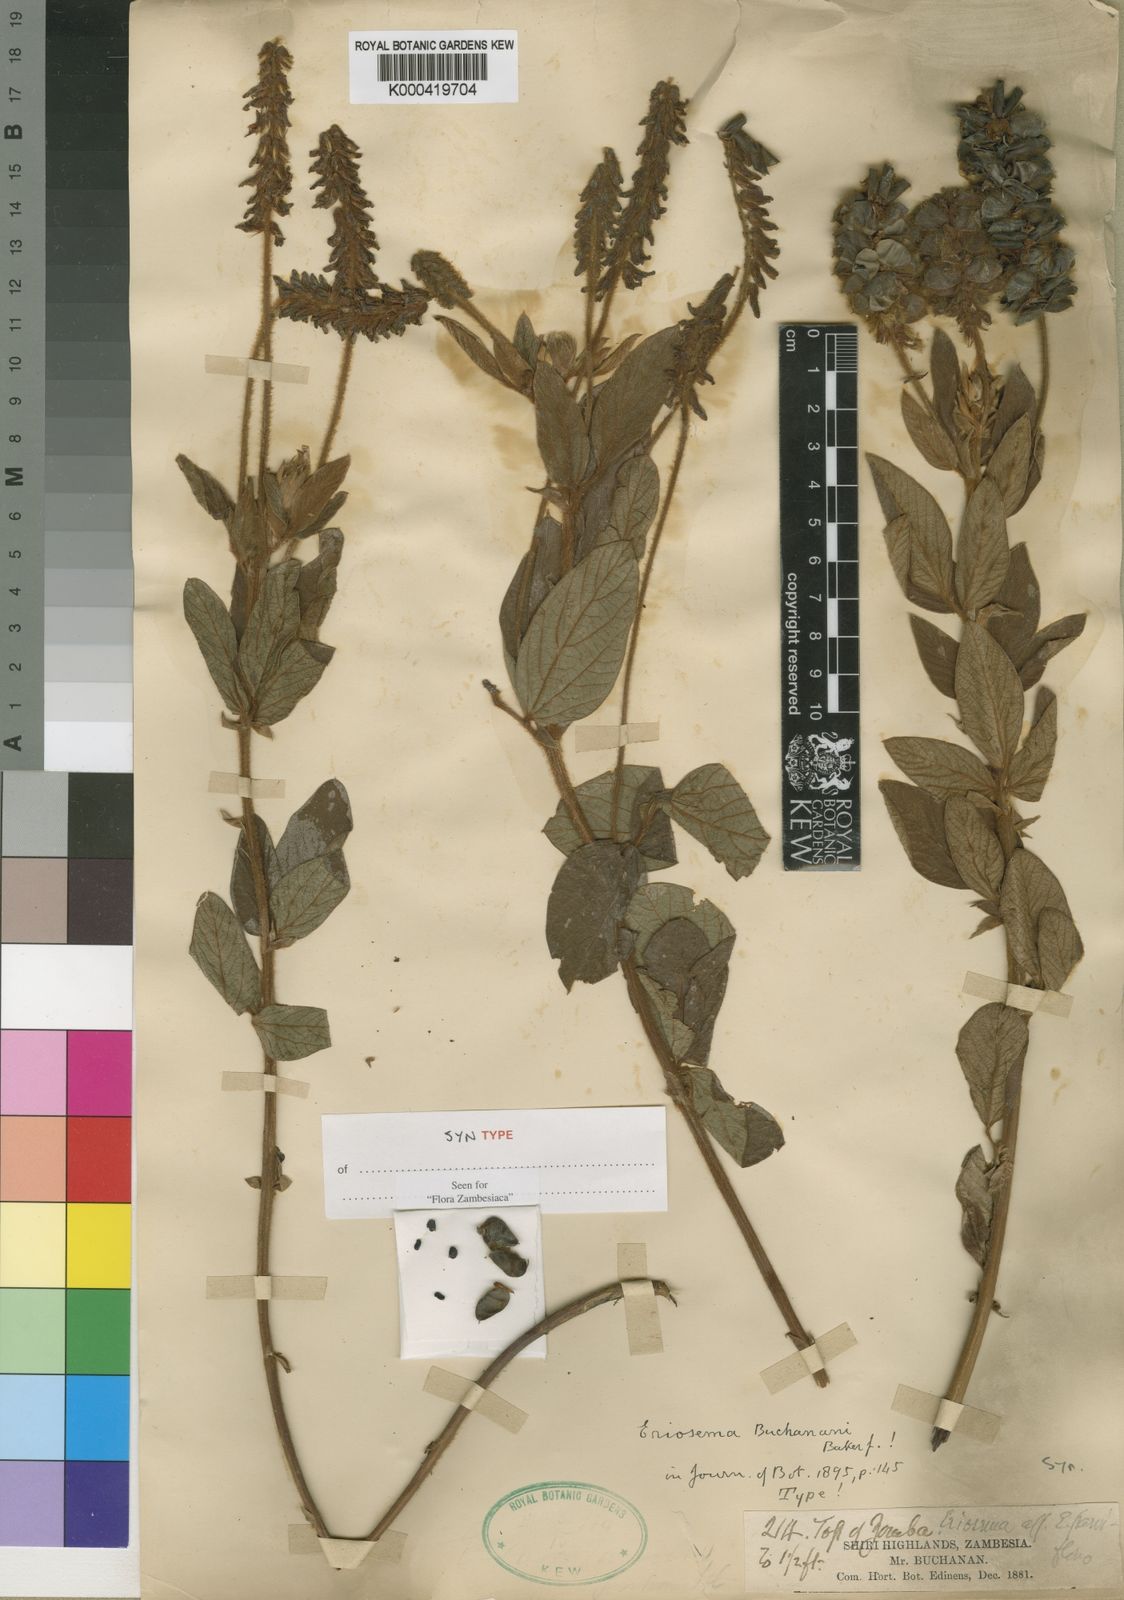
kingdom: Plantae
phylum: Tracheophyta
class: Magnoliopsida
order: Fabales
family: Fabaceae
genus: Eriosema
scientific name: Eriosema buchananii
